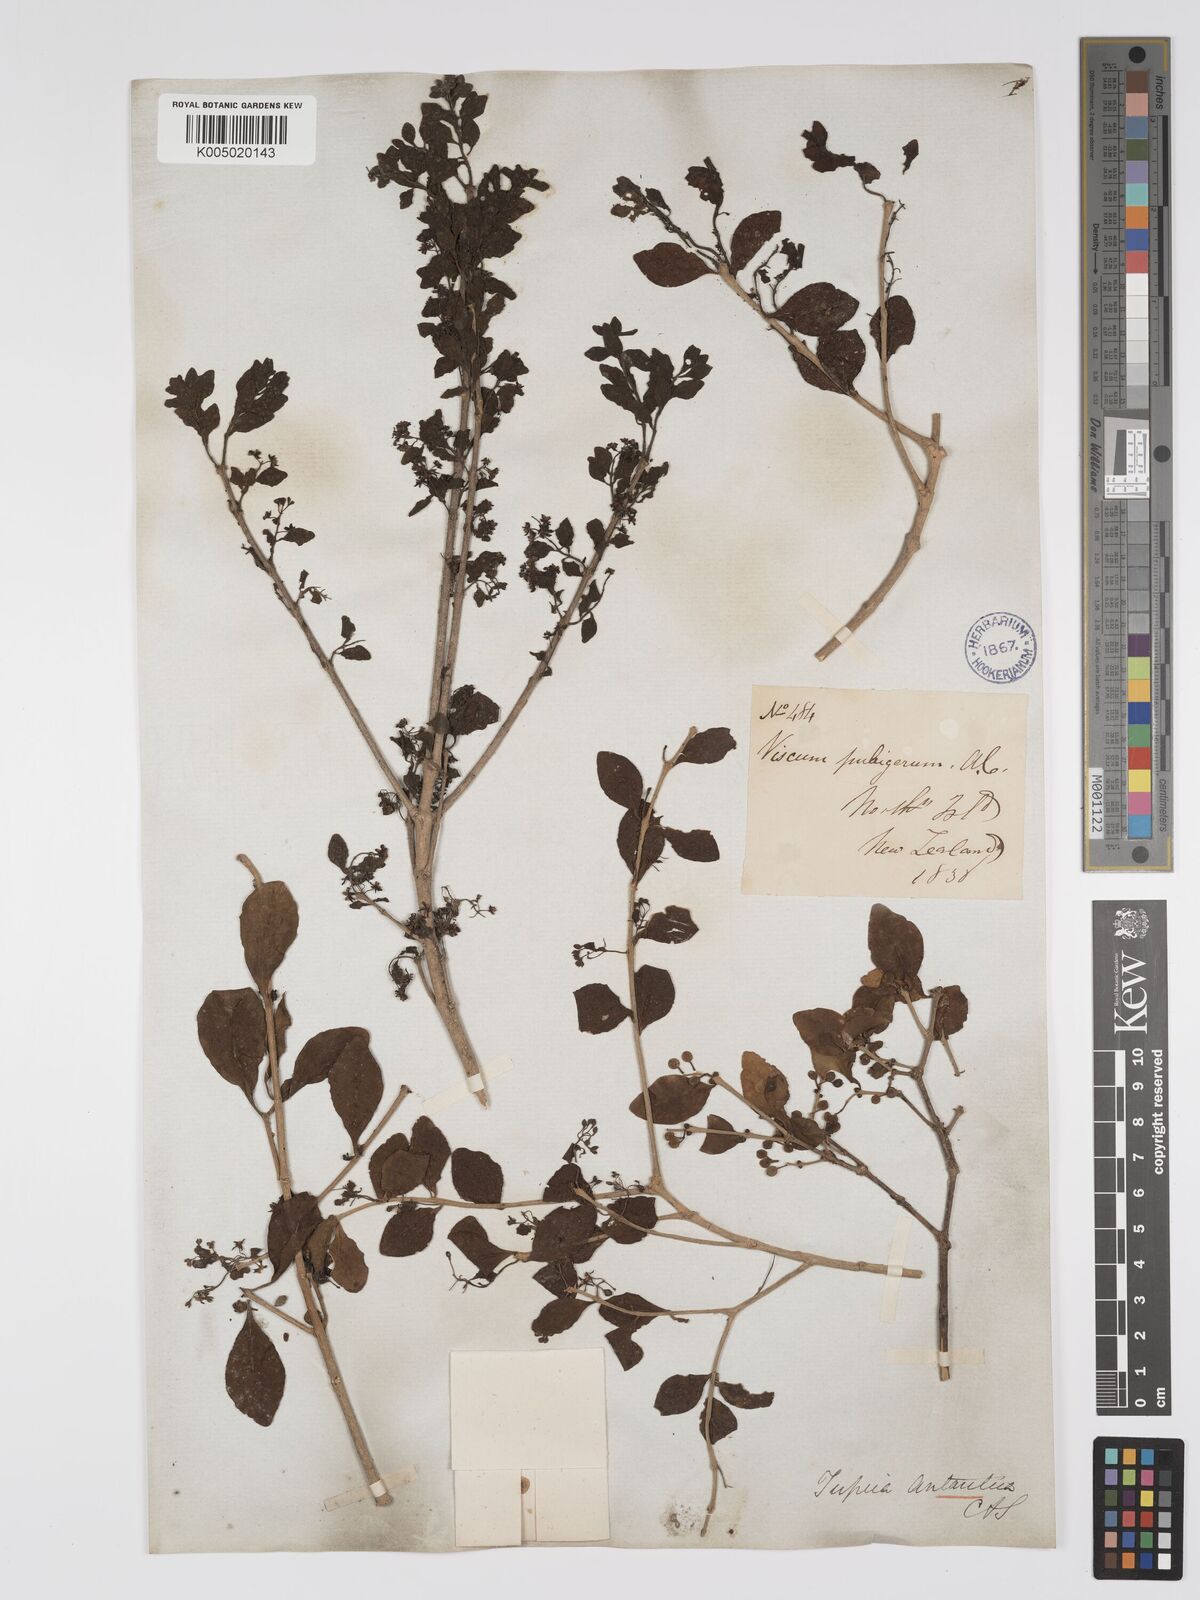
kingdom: Plantae
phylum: Tracheophyta
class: Magnoliopsida
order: Santalales
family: Loranthaceae
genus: Tupeia
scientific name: Tupeia antarctica
